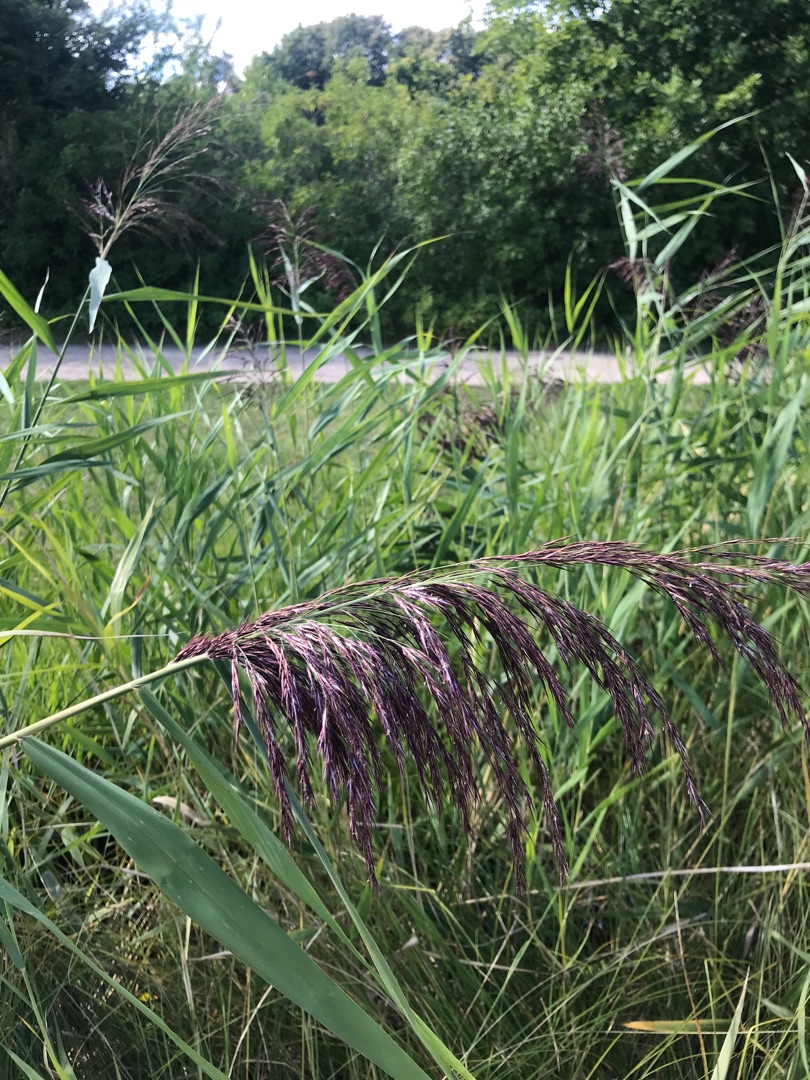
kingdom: Plantae
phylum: Tracheophyta
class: Liliopsida
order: Poales
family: Poaceae
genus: Phragmites
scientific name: Phragmites australis
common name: Tagrør
